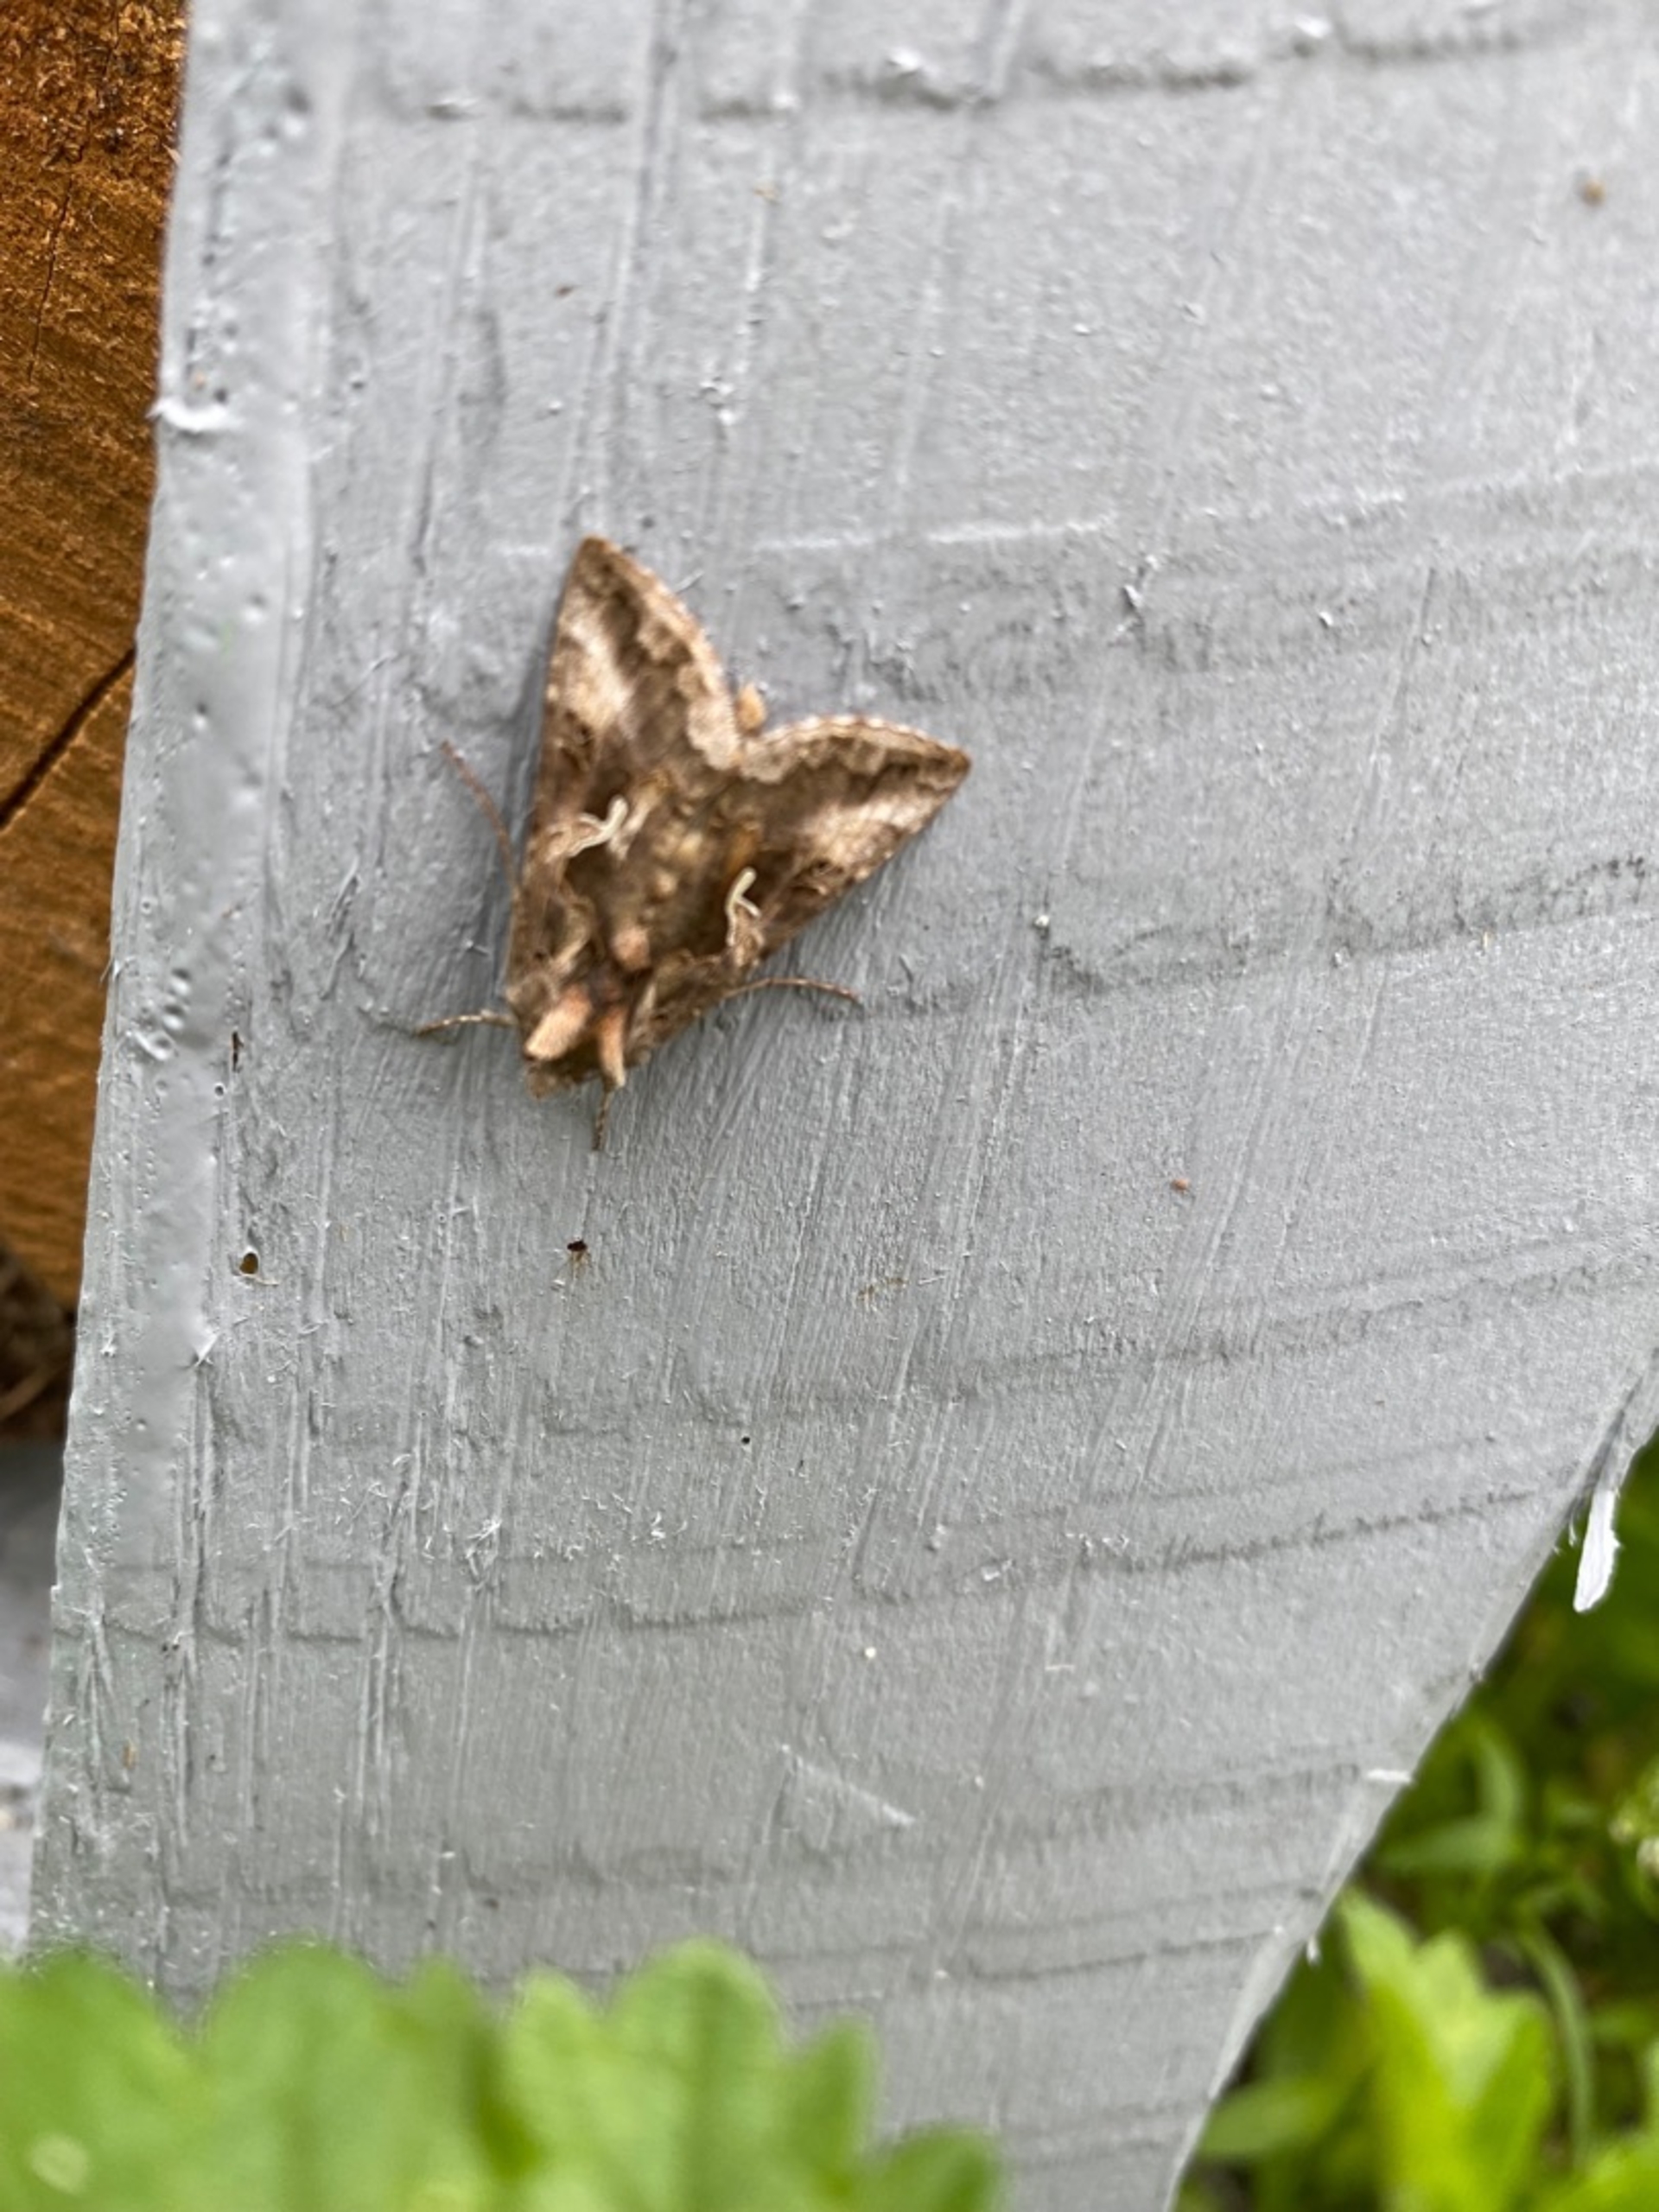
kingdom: Animalia
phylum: Arthropoda
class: Insecta
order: Lepidoptera
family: Noctuidae
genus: Autographa
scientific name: Autographa gamma
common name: Gammaugle
